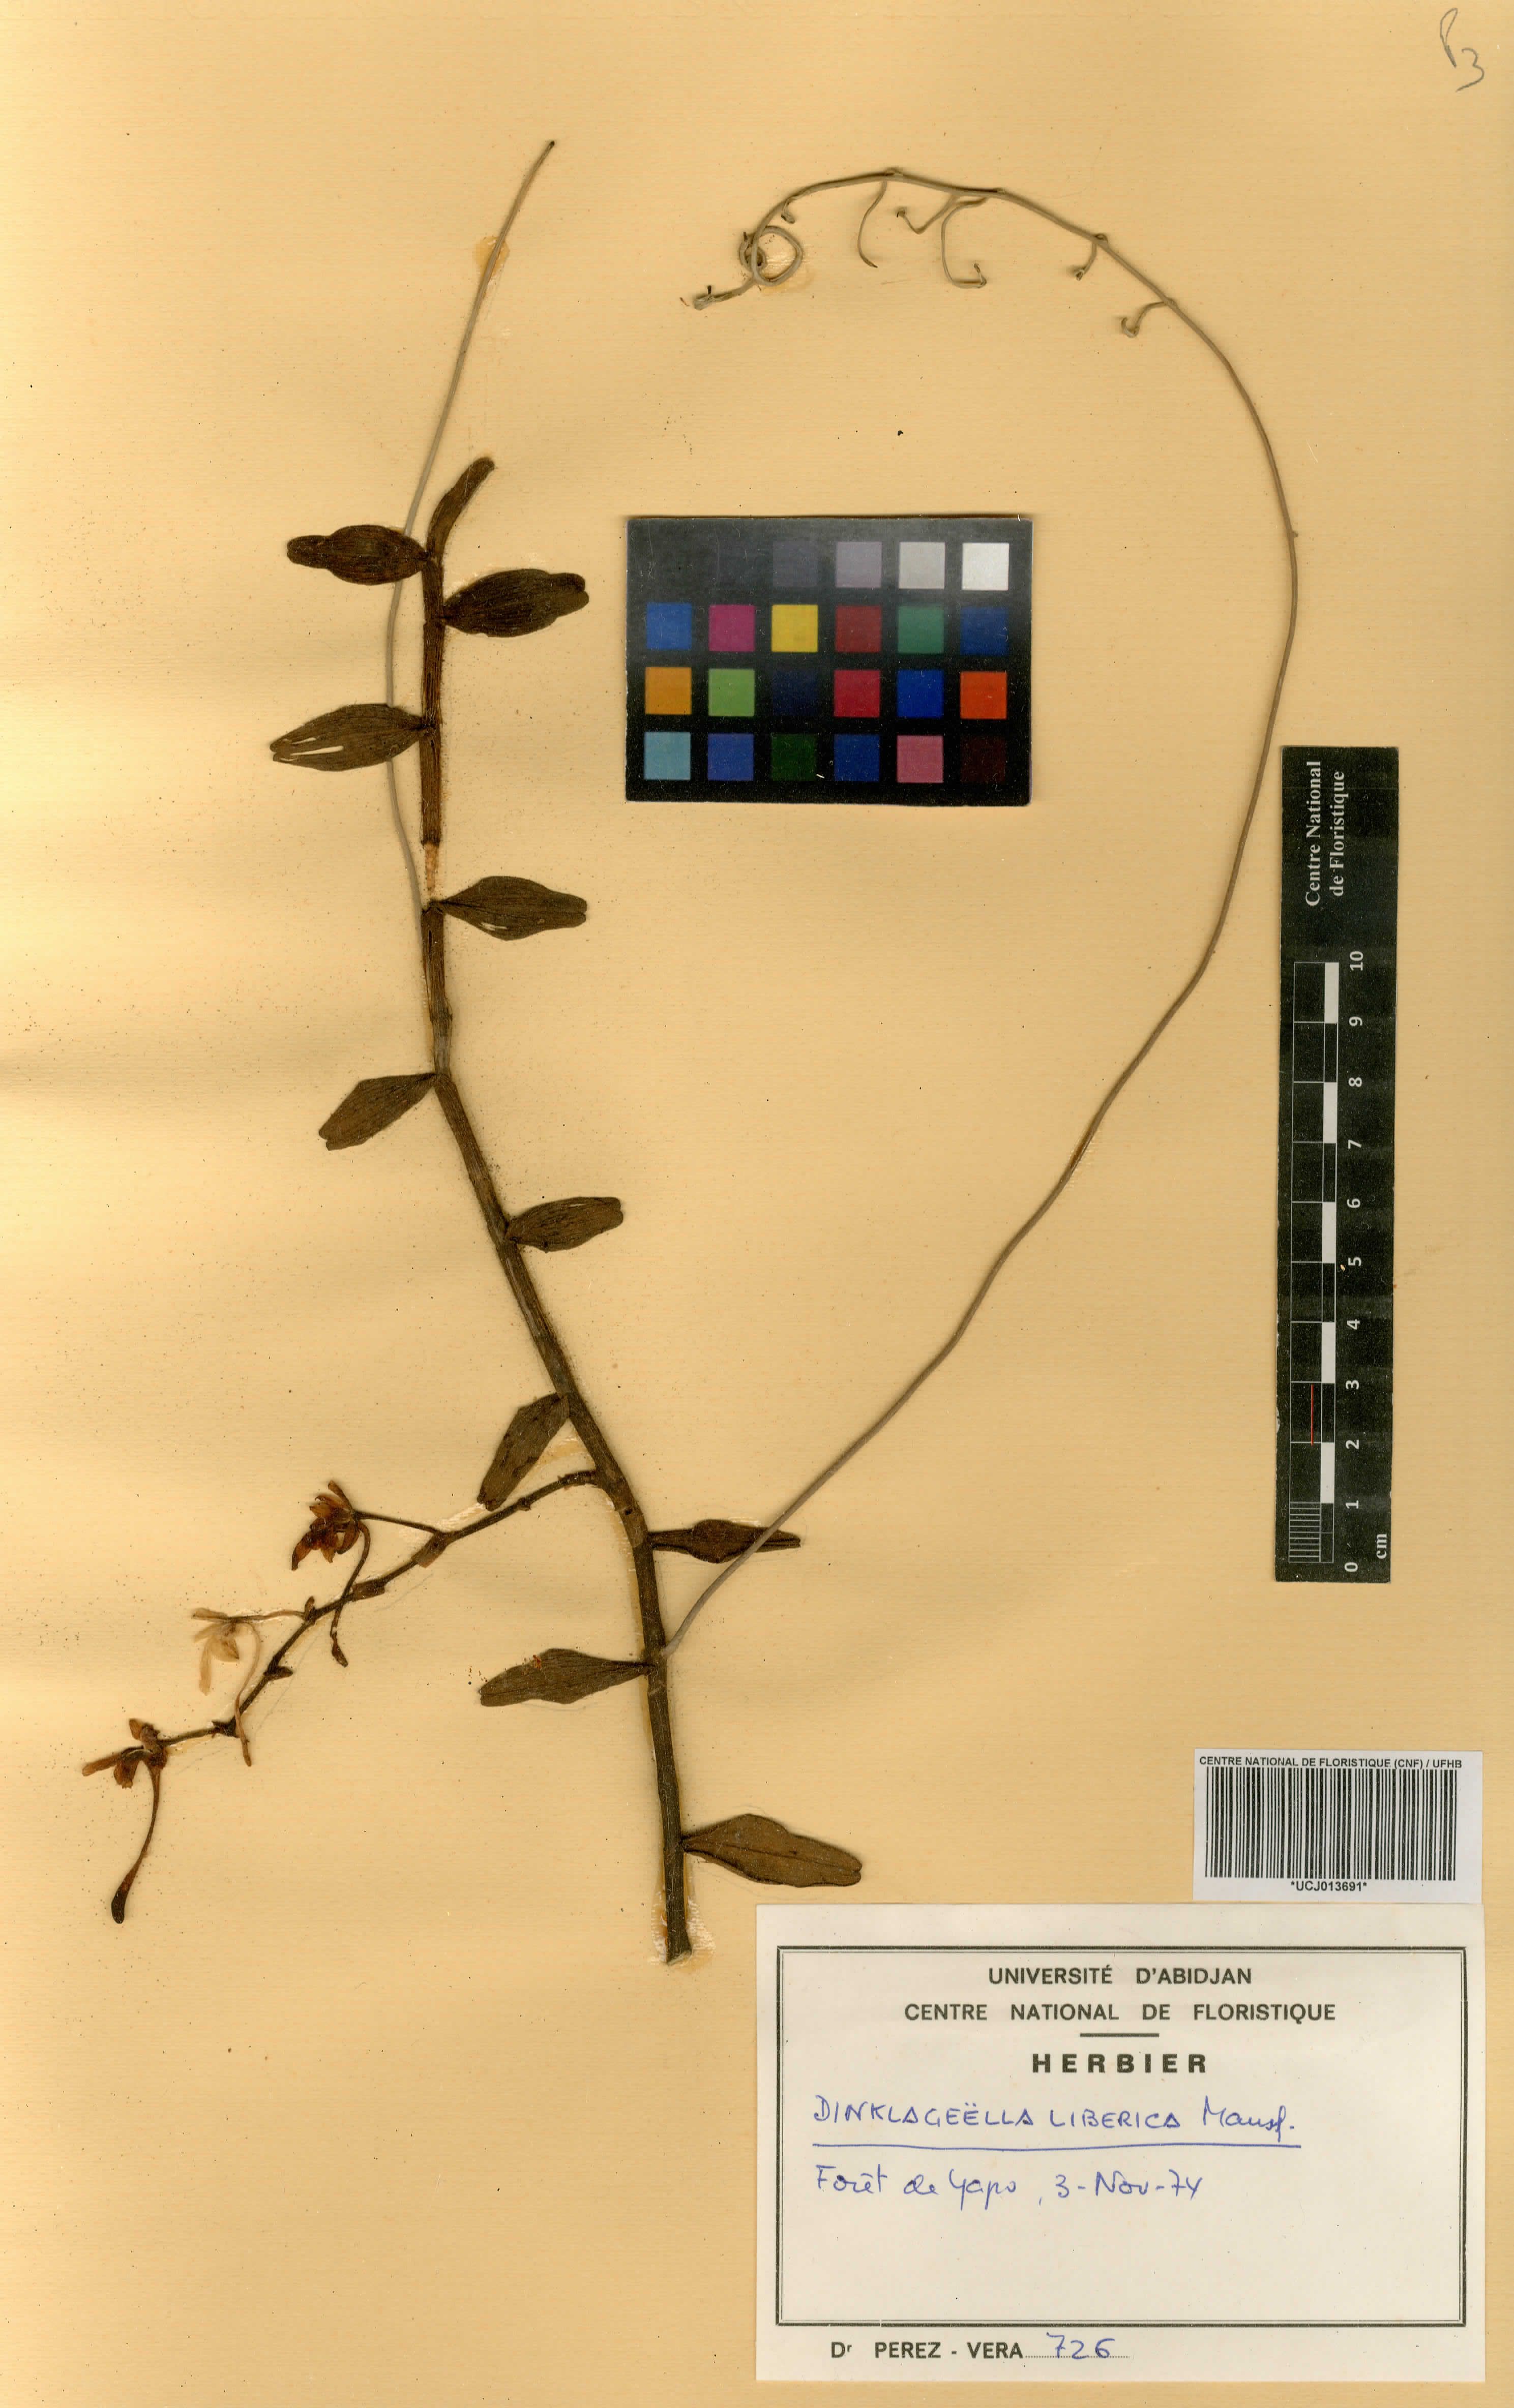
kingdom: Plantae
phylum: Tracheophyta
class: Liliopsida
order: Asparagales
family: Orchidaceae
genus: Dinklageella
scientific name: Dinklageella liberica
